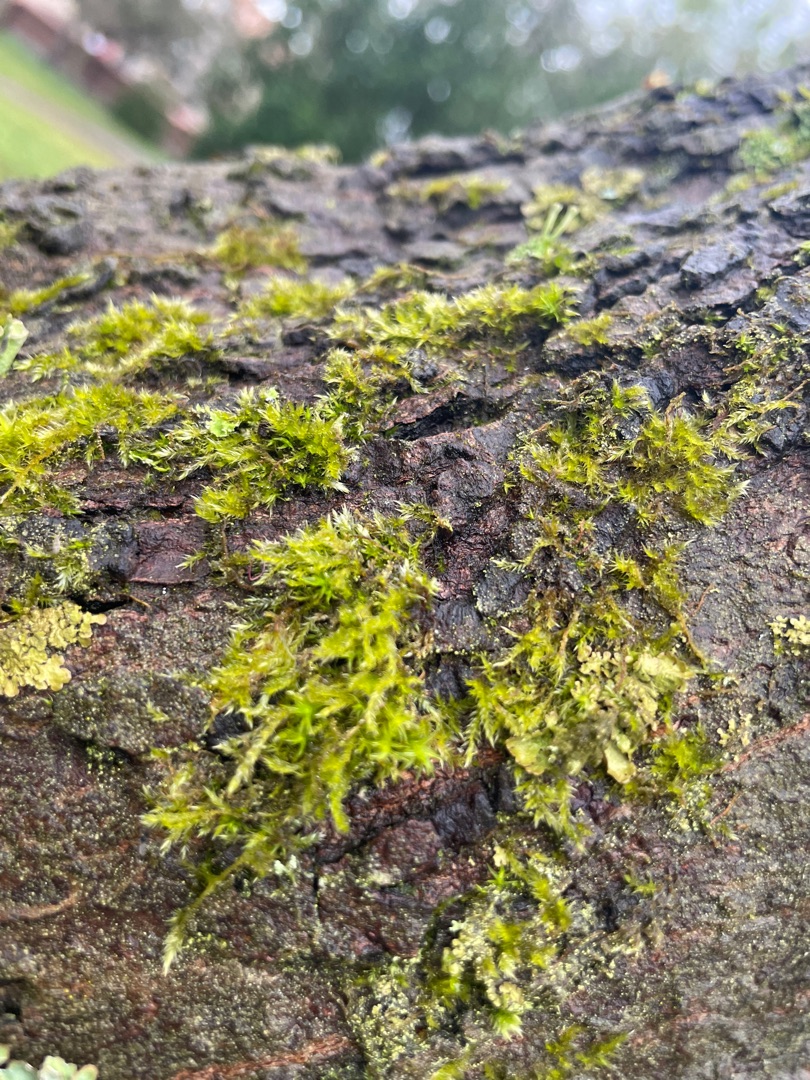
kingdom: Plantae
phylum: Bryophyta
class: Bryopsida
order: Hypnales
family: Hypnaceae
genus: Hypnum
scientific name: Hypnum
